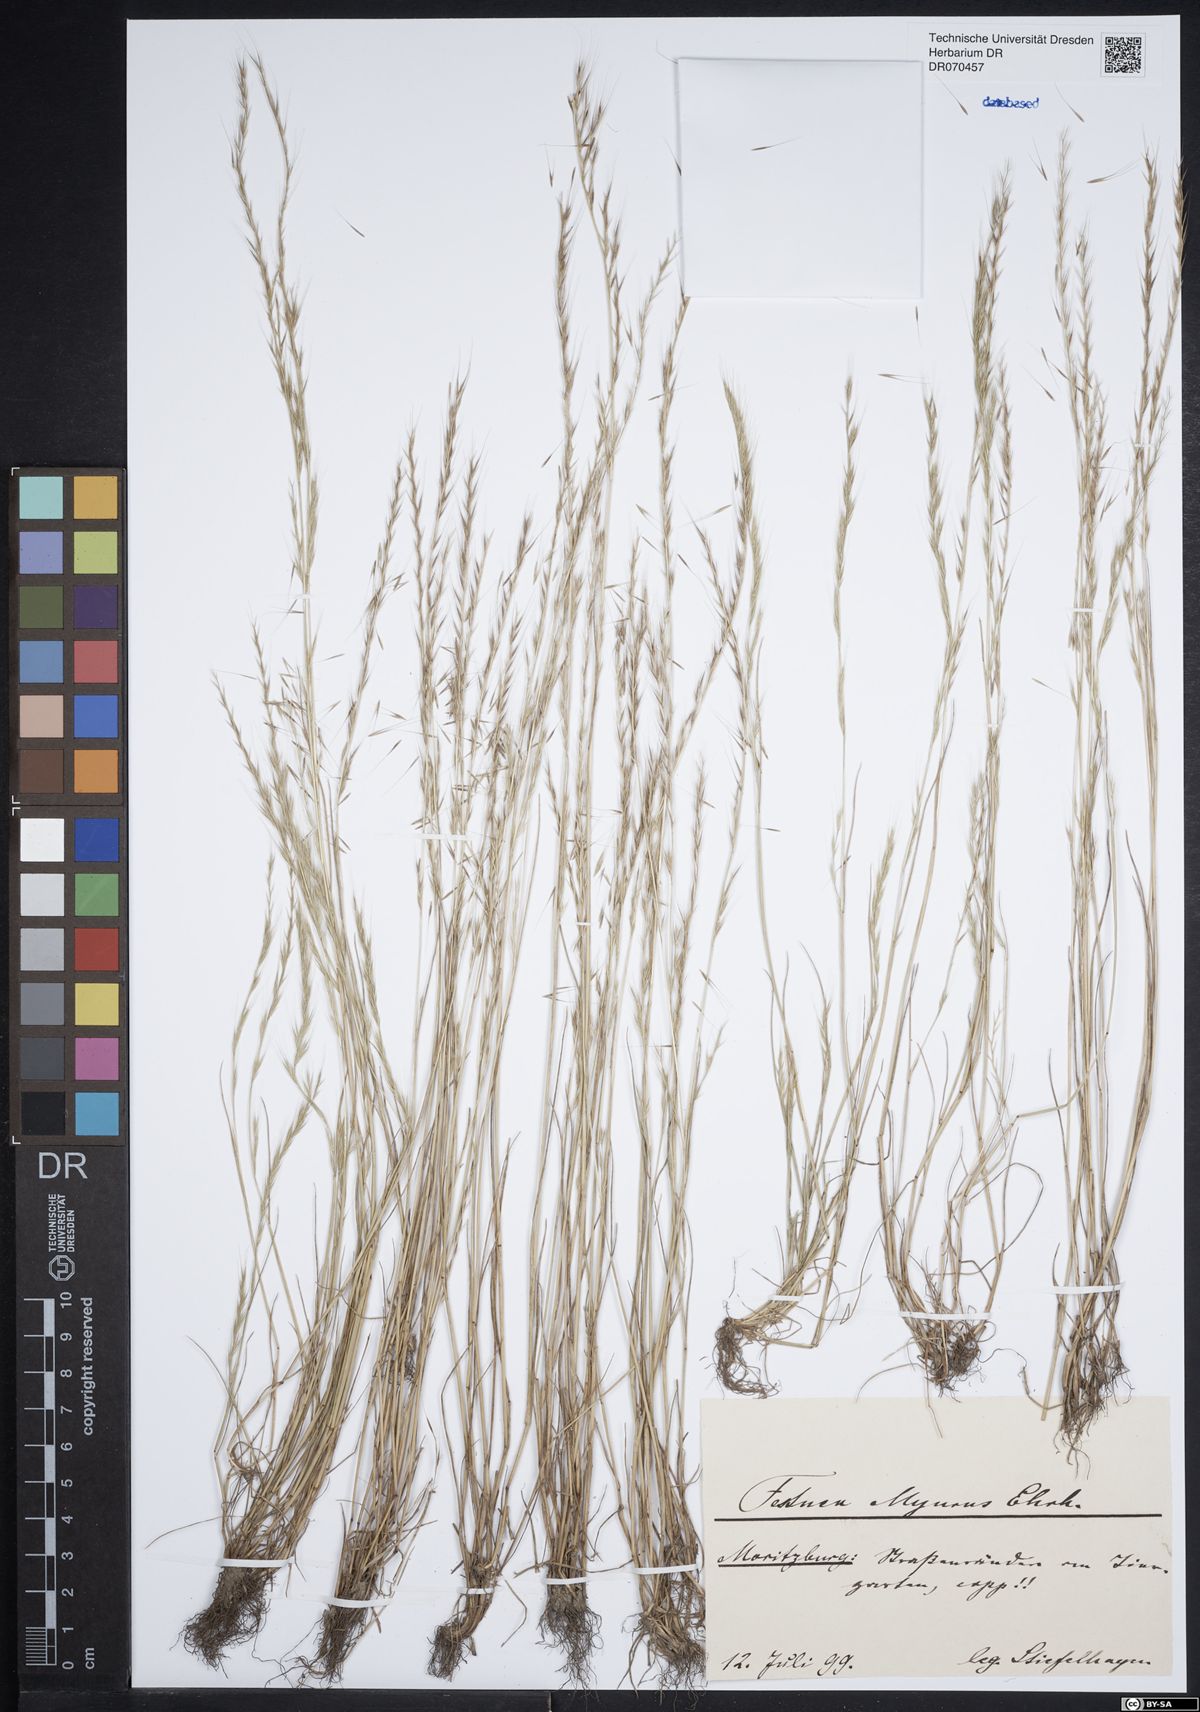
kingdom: Plantae
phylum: Tracheophyta
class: Liliopsida
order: Poales
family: Poaceae
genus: Festuca
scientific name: Festuca myuros
